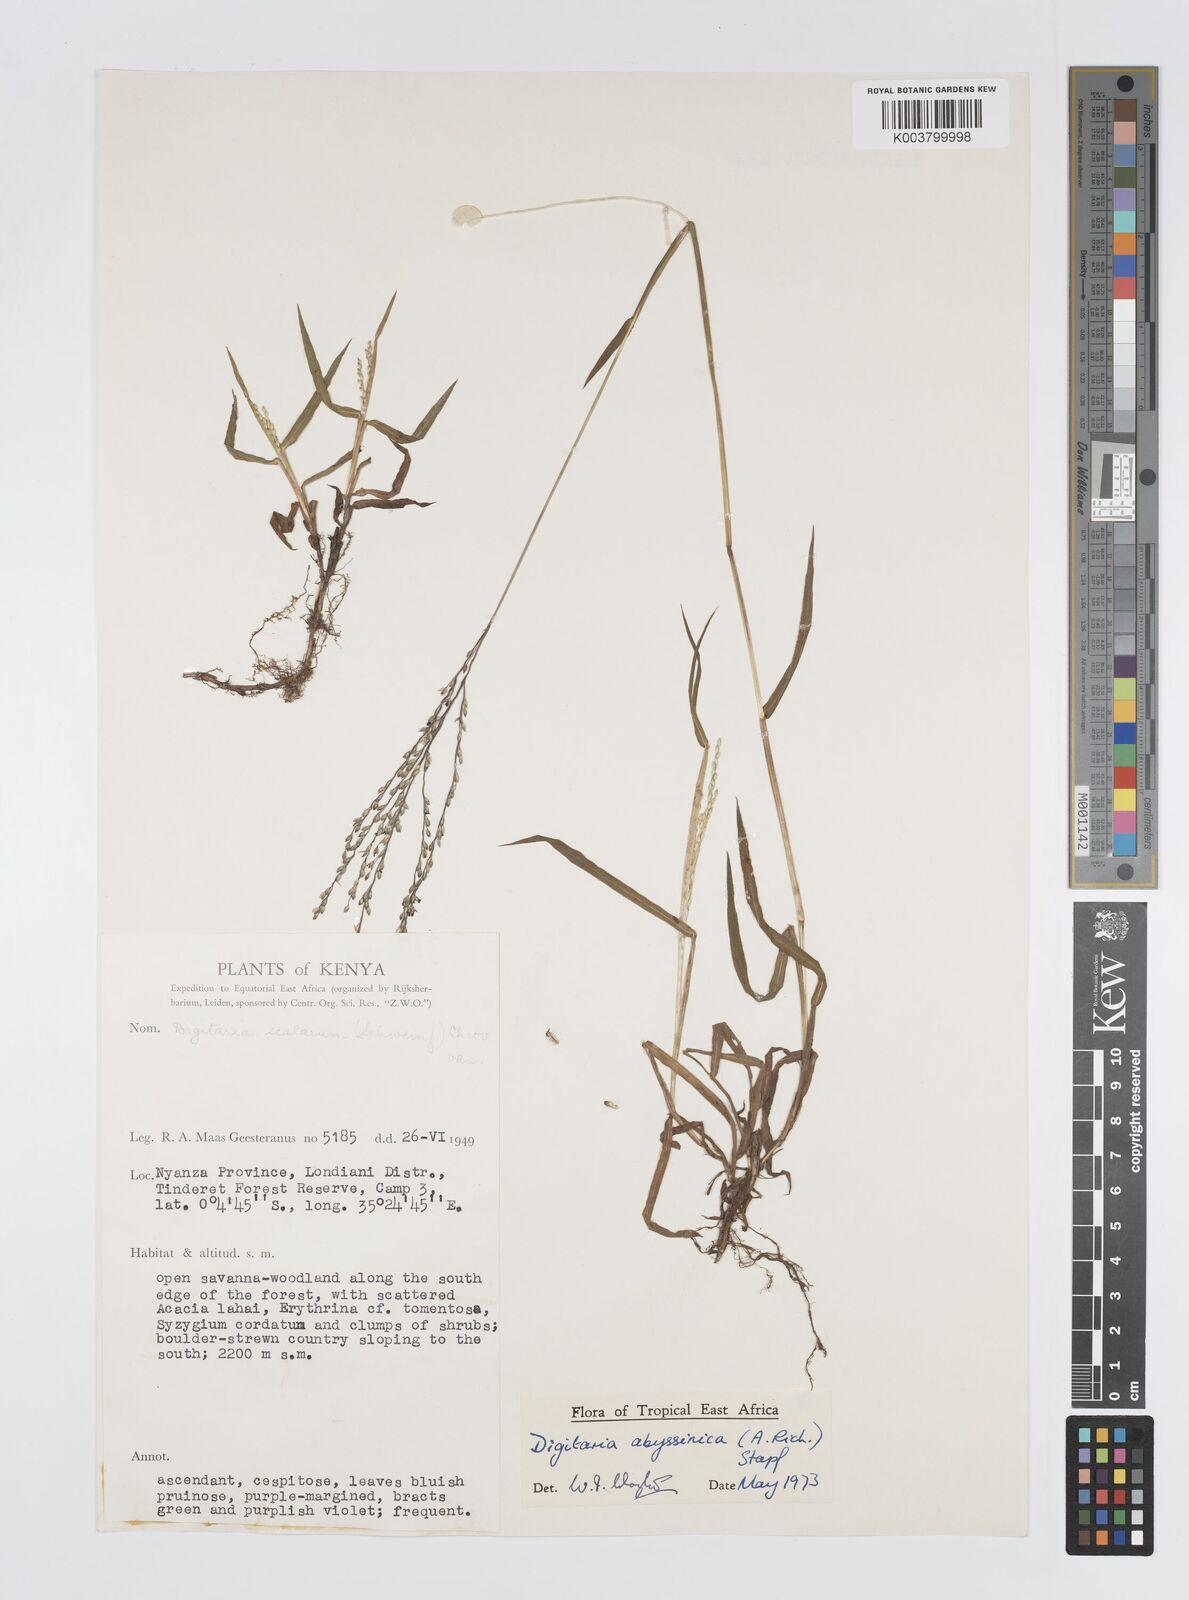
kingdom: Plantae
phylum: Tracheophyta
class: Liliopsida
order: Poales
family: Poaceae
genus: Digitaria
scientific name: Digitaria abyssinica
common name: African couchgrass
